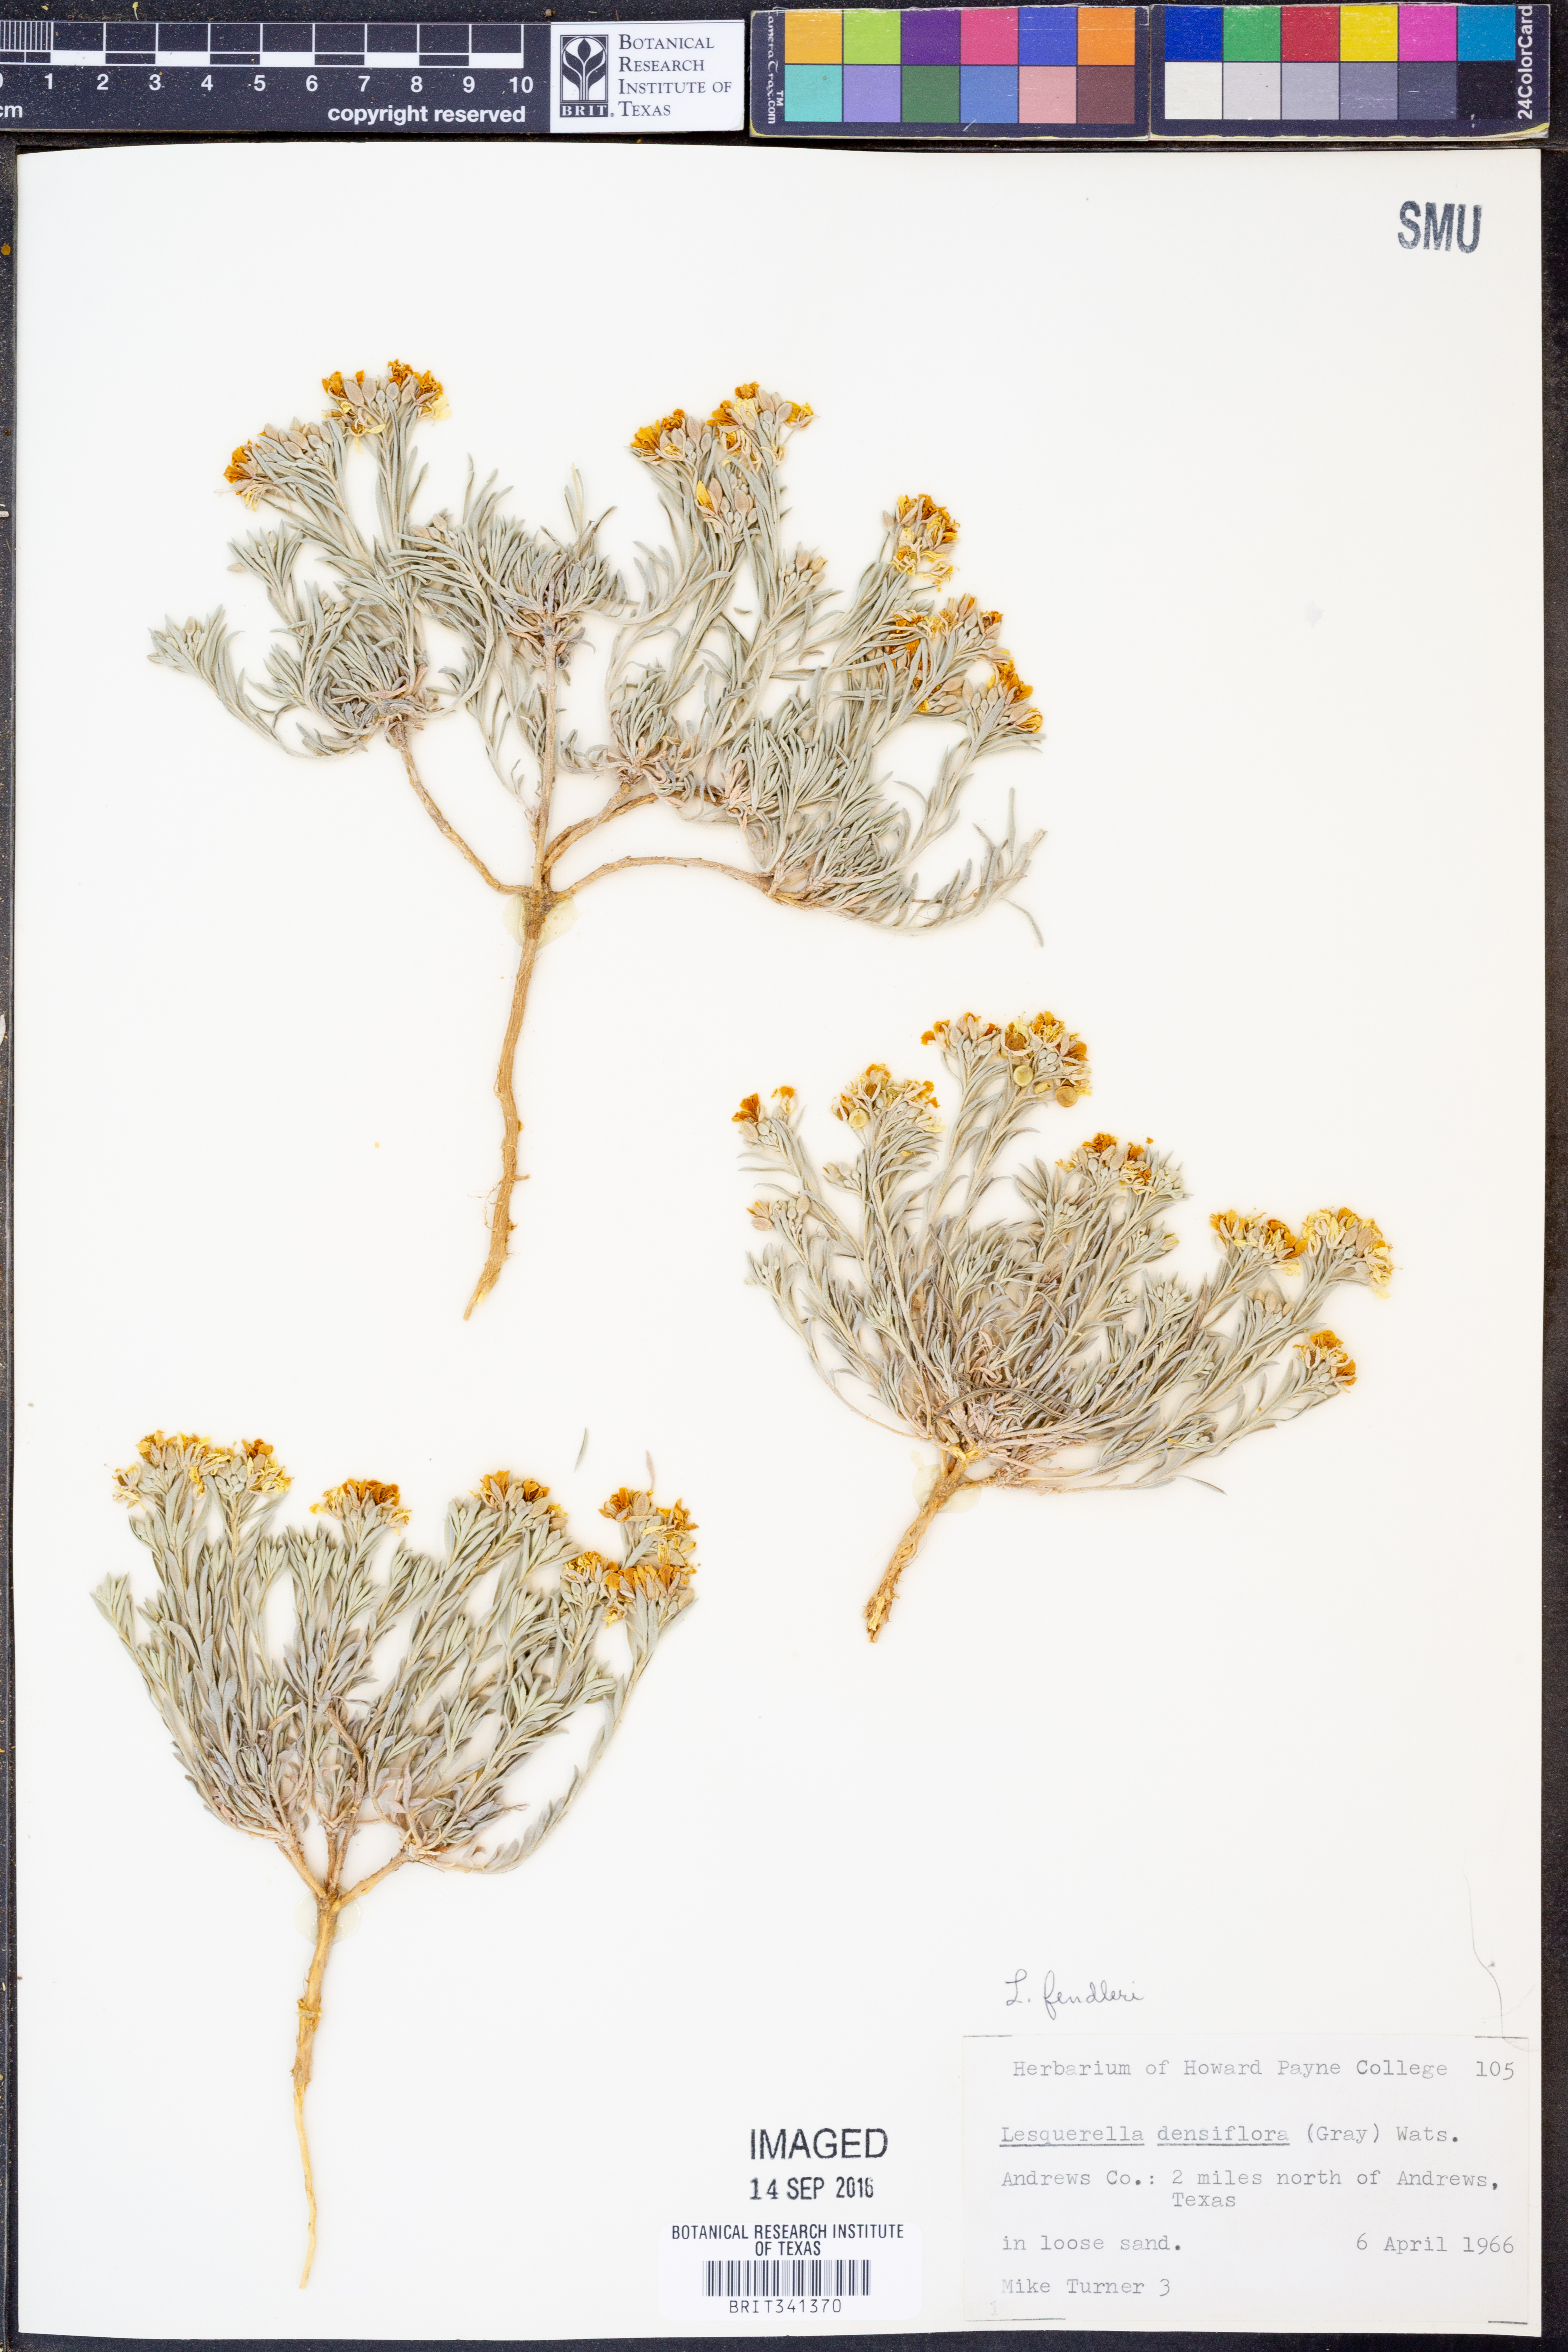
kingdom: Plantae
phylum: Tracheophyta
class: Magnoliopsida
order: Brassicales
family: Brassicaceae
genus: Physaria
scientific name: Physaria fendleri
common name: Fendler's bladderpod
